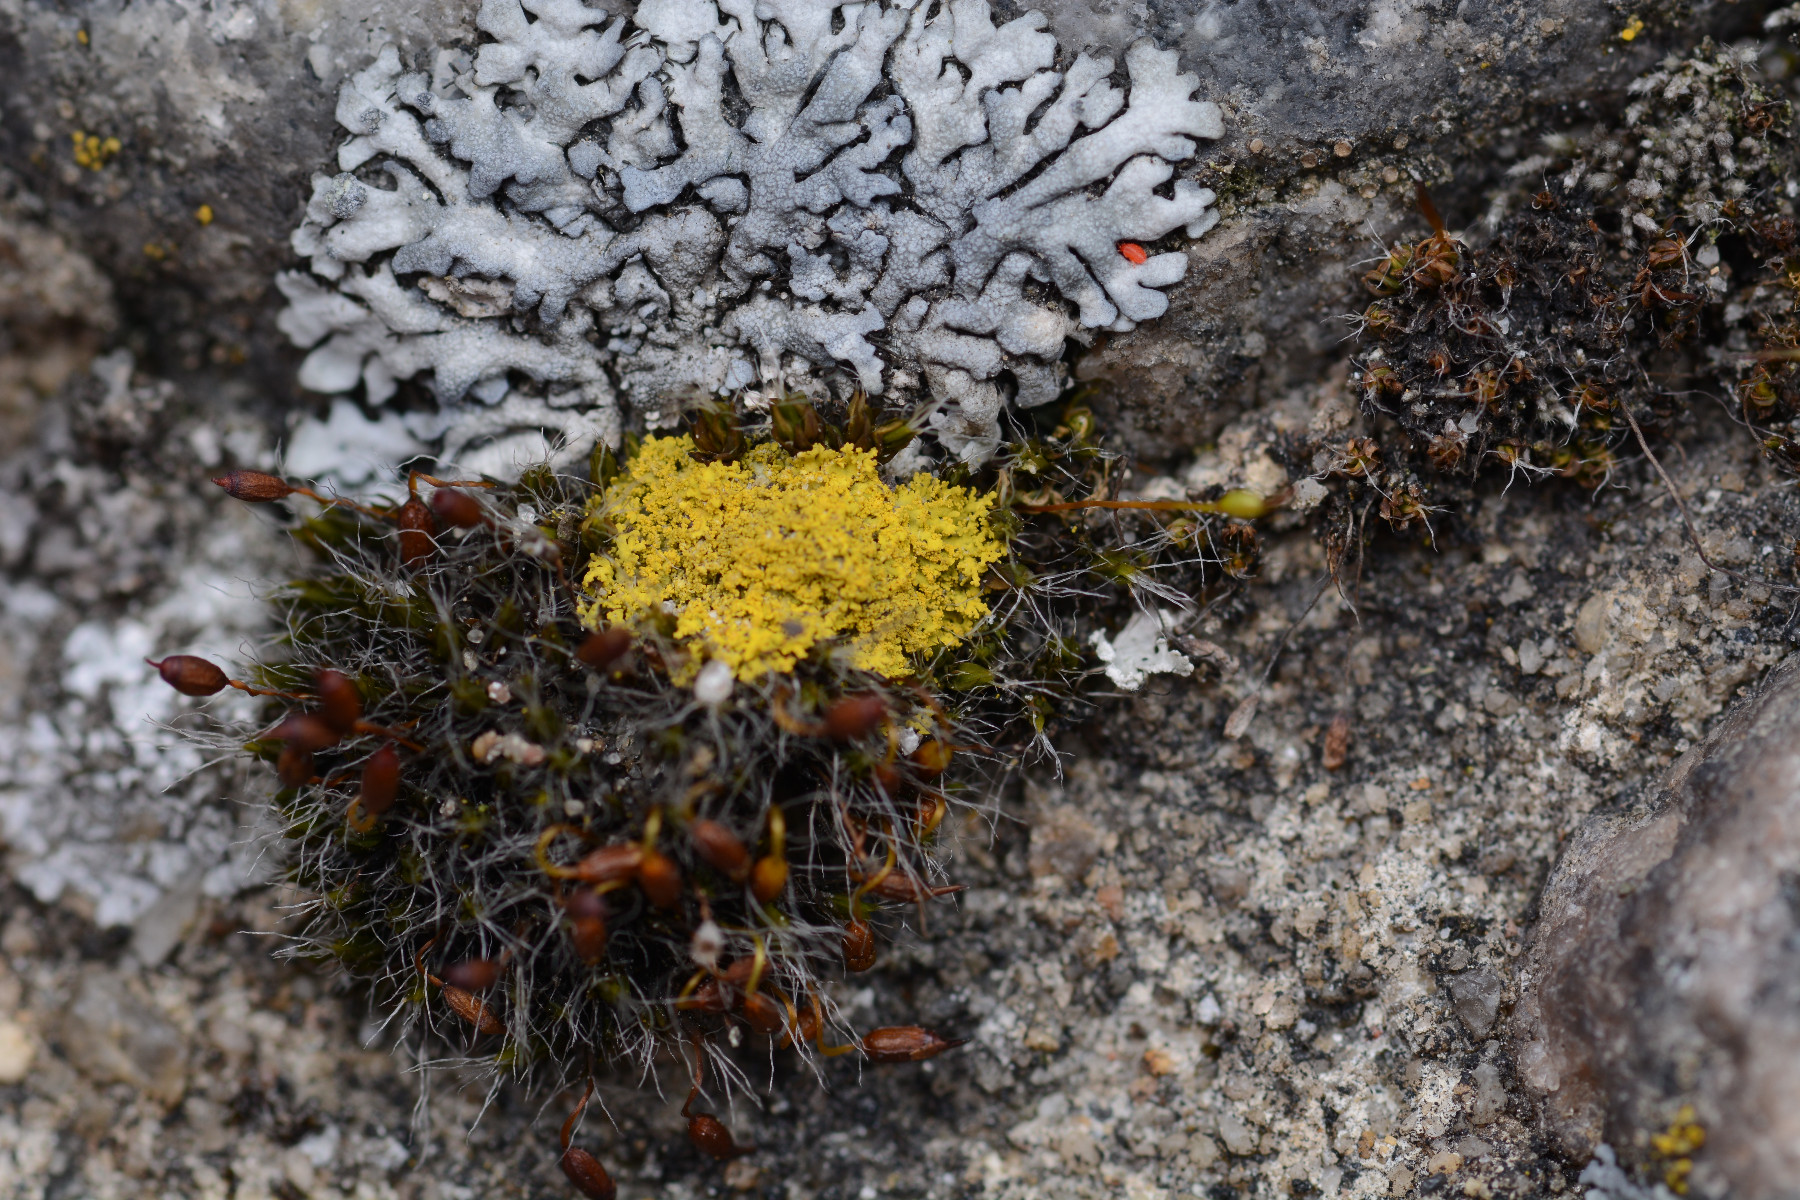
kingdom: Fungi
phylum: Ascomycota
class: Candelariomycetes
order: Candelariales
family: Candelariaceae
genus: Candelaria
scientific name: Candelaria pacifica
